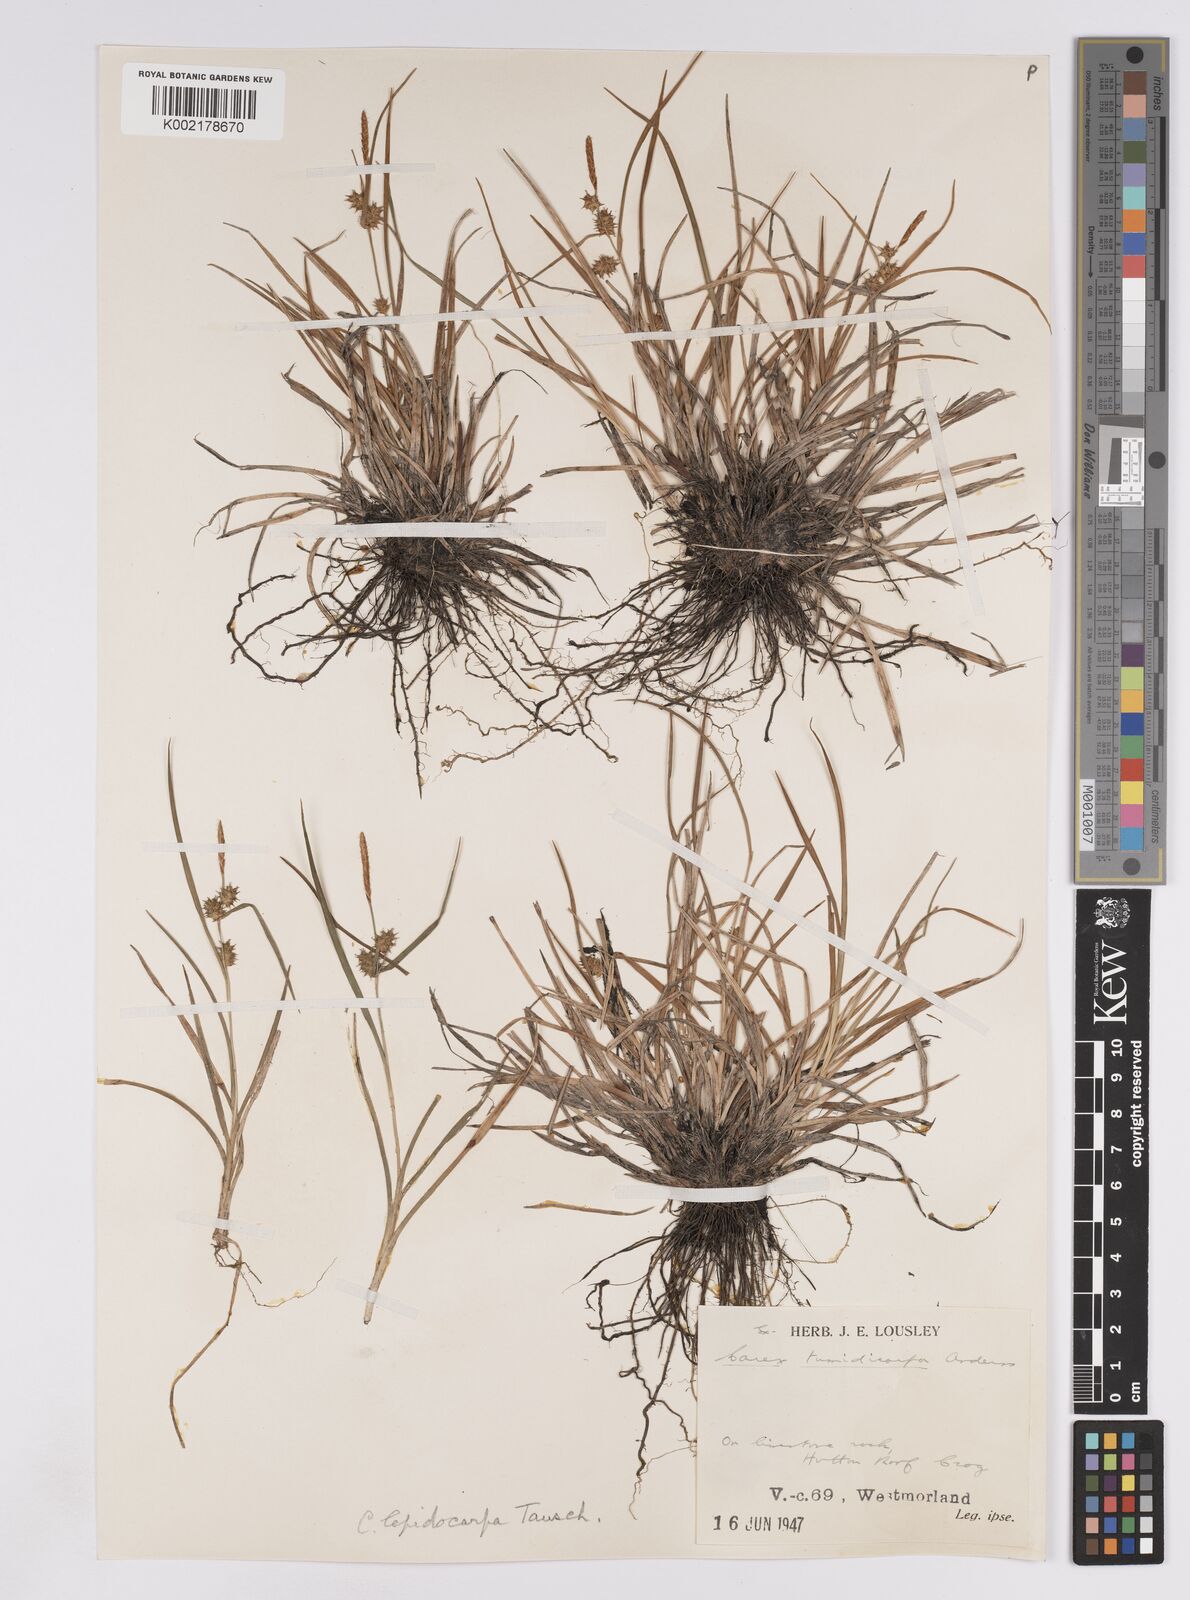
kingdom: Plantae
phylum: Tracheophyta
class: Liliopsida
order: Poales
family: Cyperaceae
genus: Carex
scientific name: Carex lepidocarpa
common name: Long-stalked yellow-sedge
